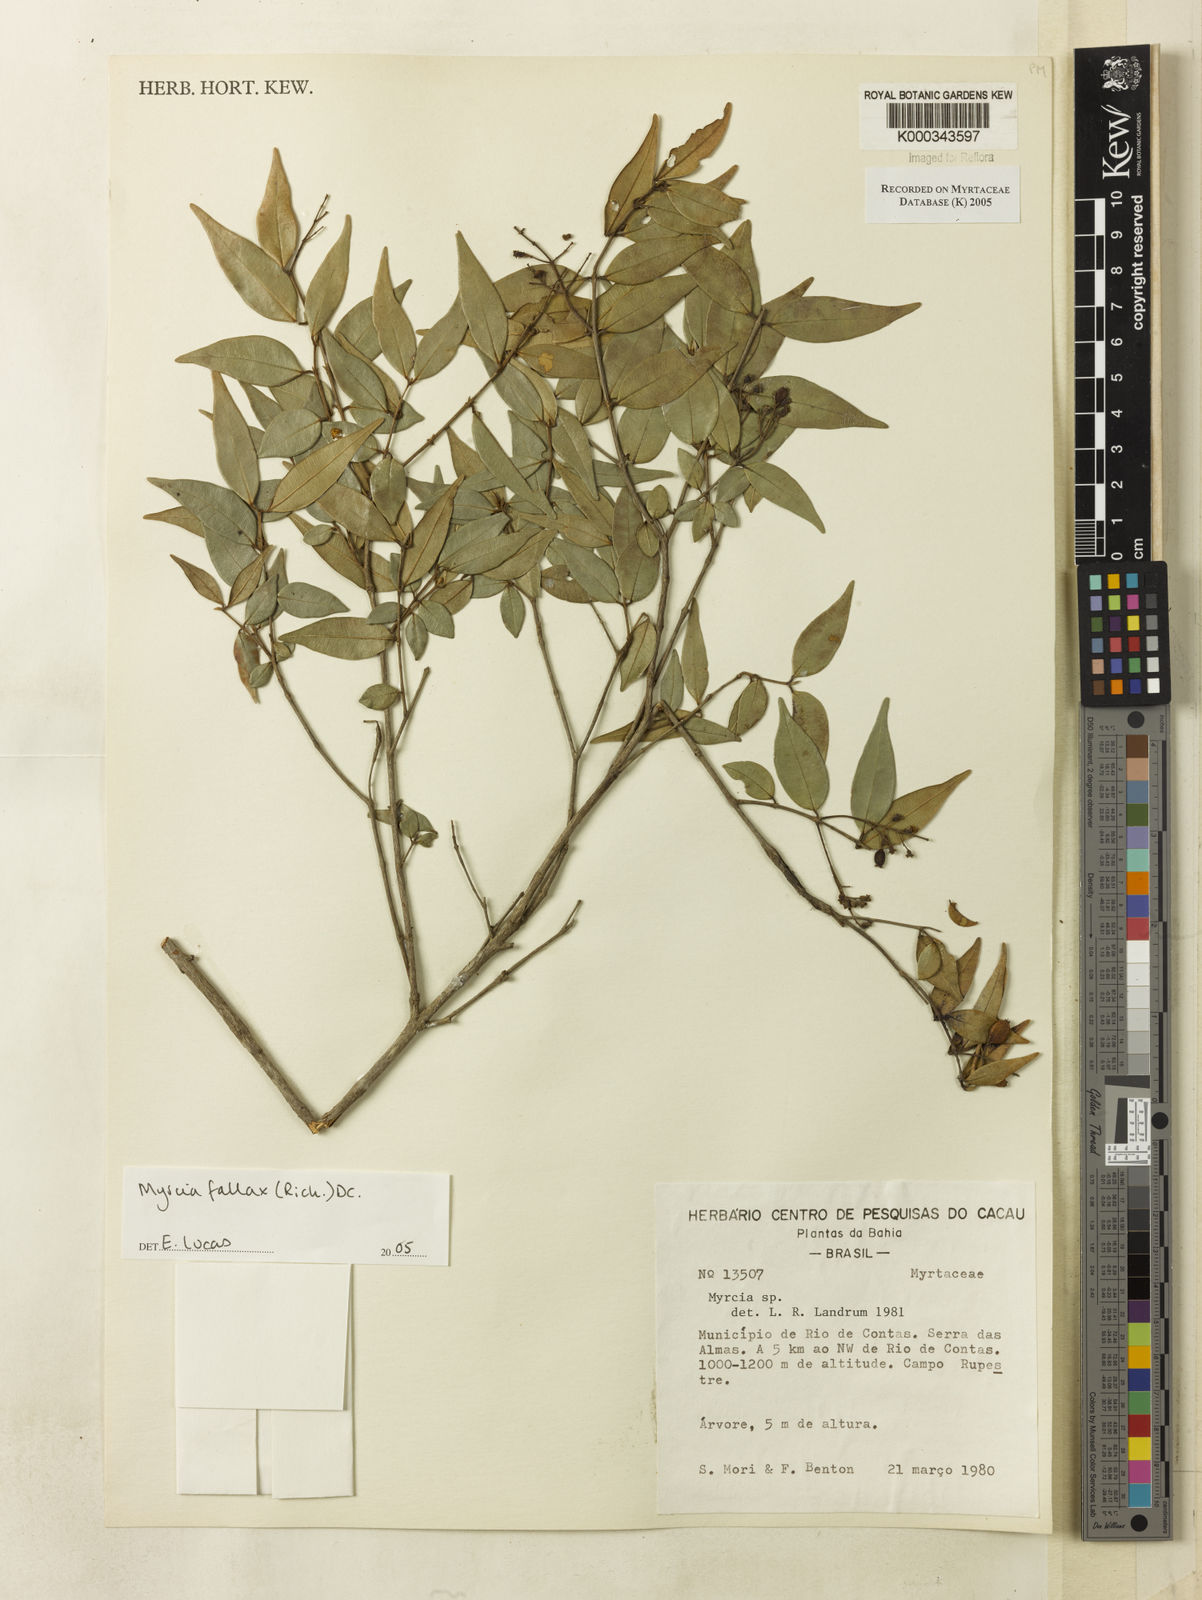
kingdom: Plantae
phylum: Tracheophyta
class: Magnoliopsida
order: Myrtales
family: Myrtaceae
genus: Myrcia
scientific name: Myrcia splendens
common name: Surinam cherry
